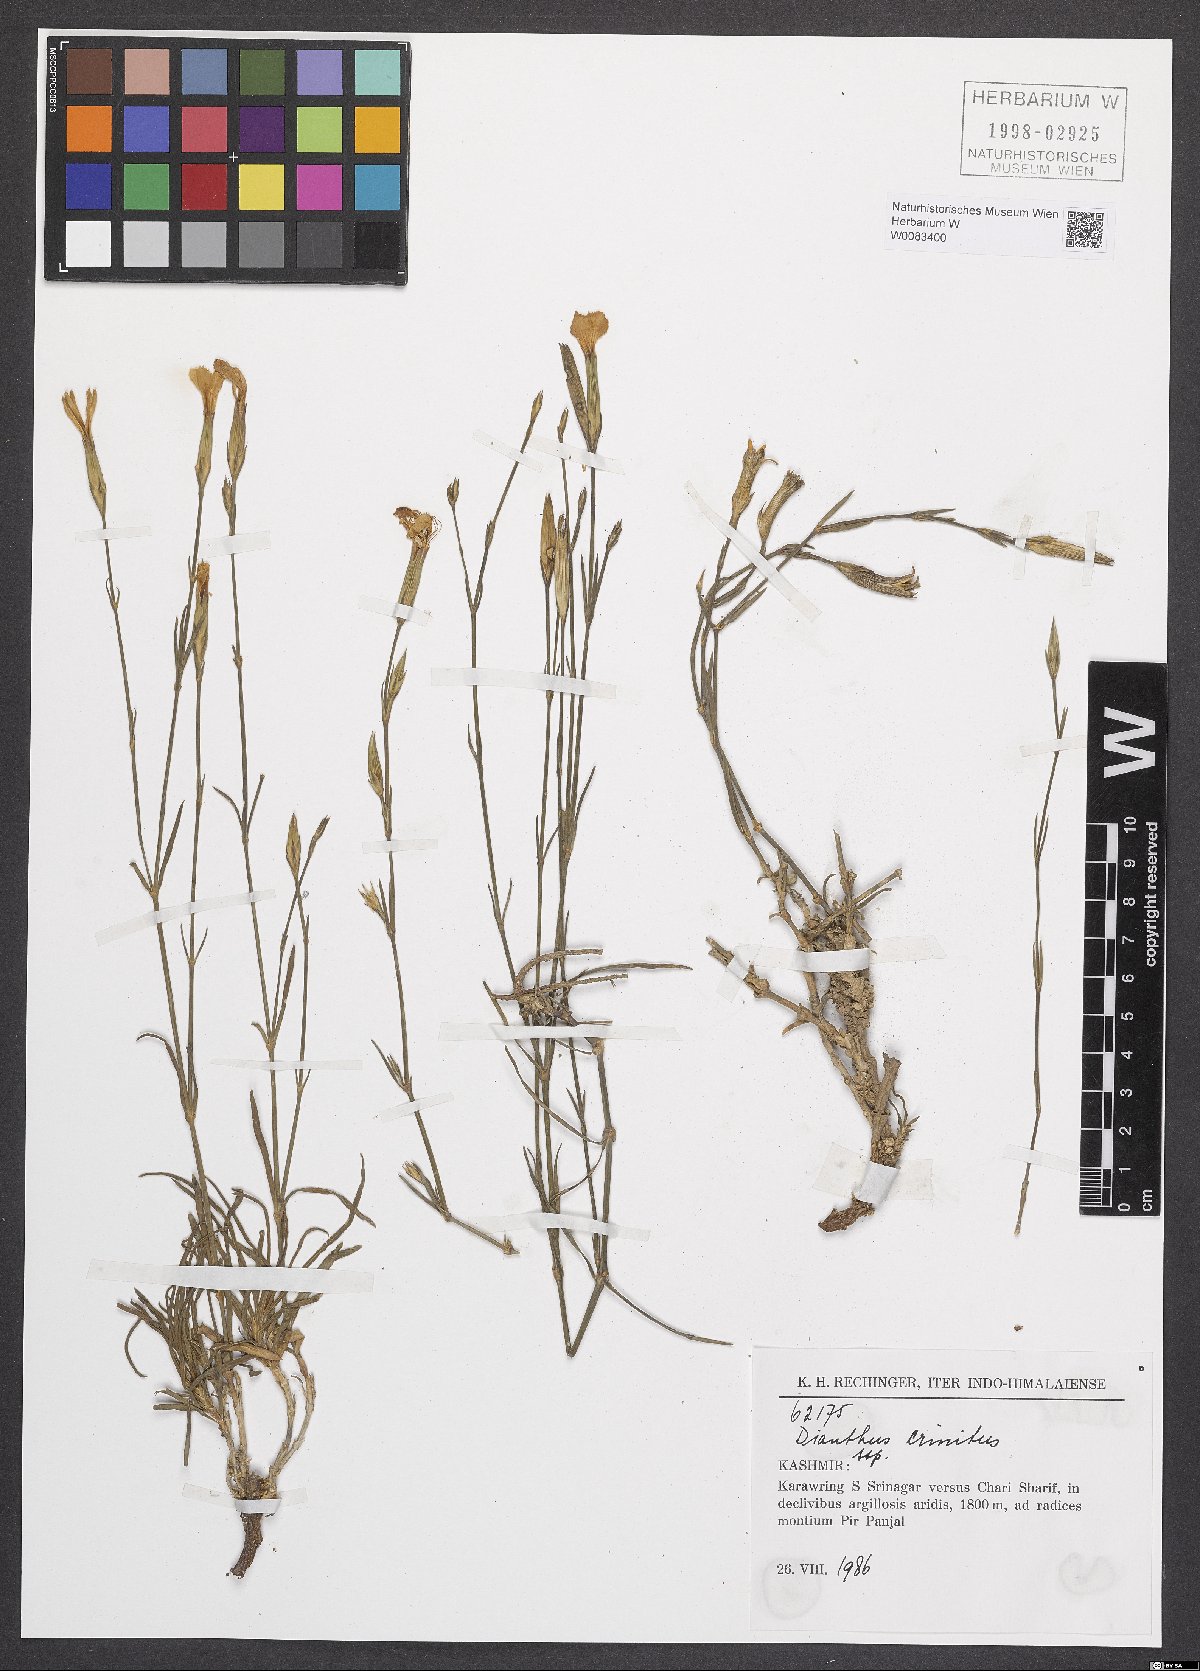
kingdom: Plantae
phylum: Tracheophyta
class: Magnoliopsida
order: Caryophyllales
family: Caryophyllaceae
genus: Dianthus
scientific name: Dianthus crinitus
